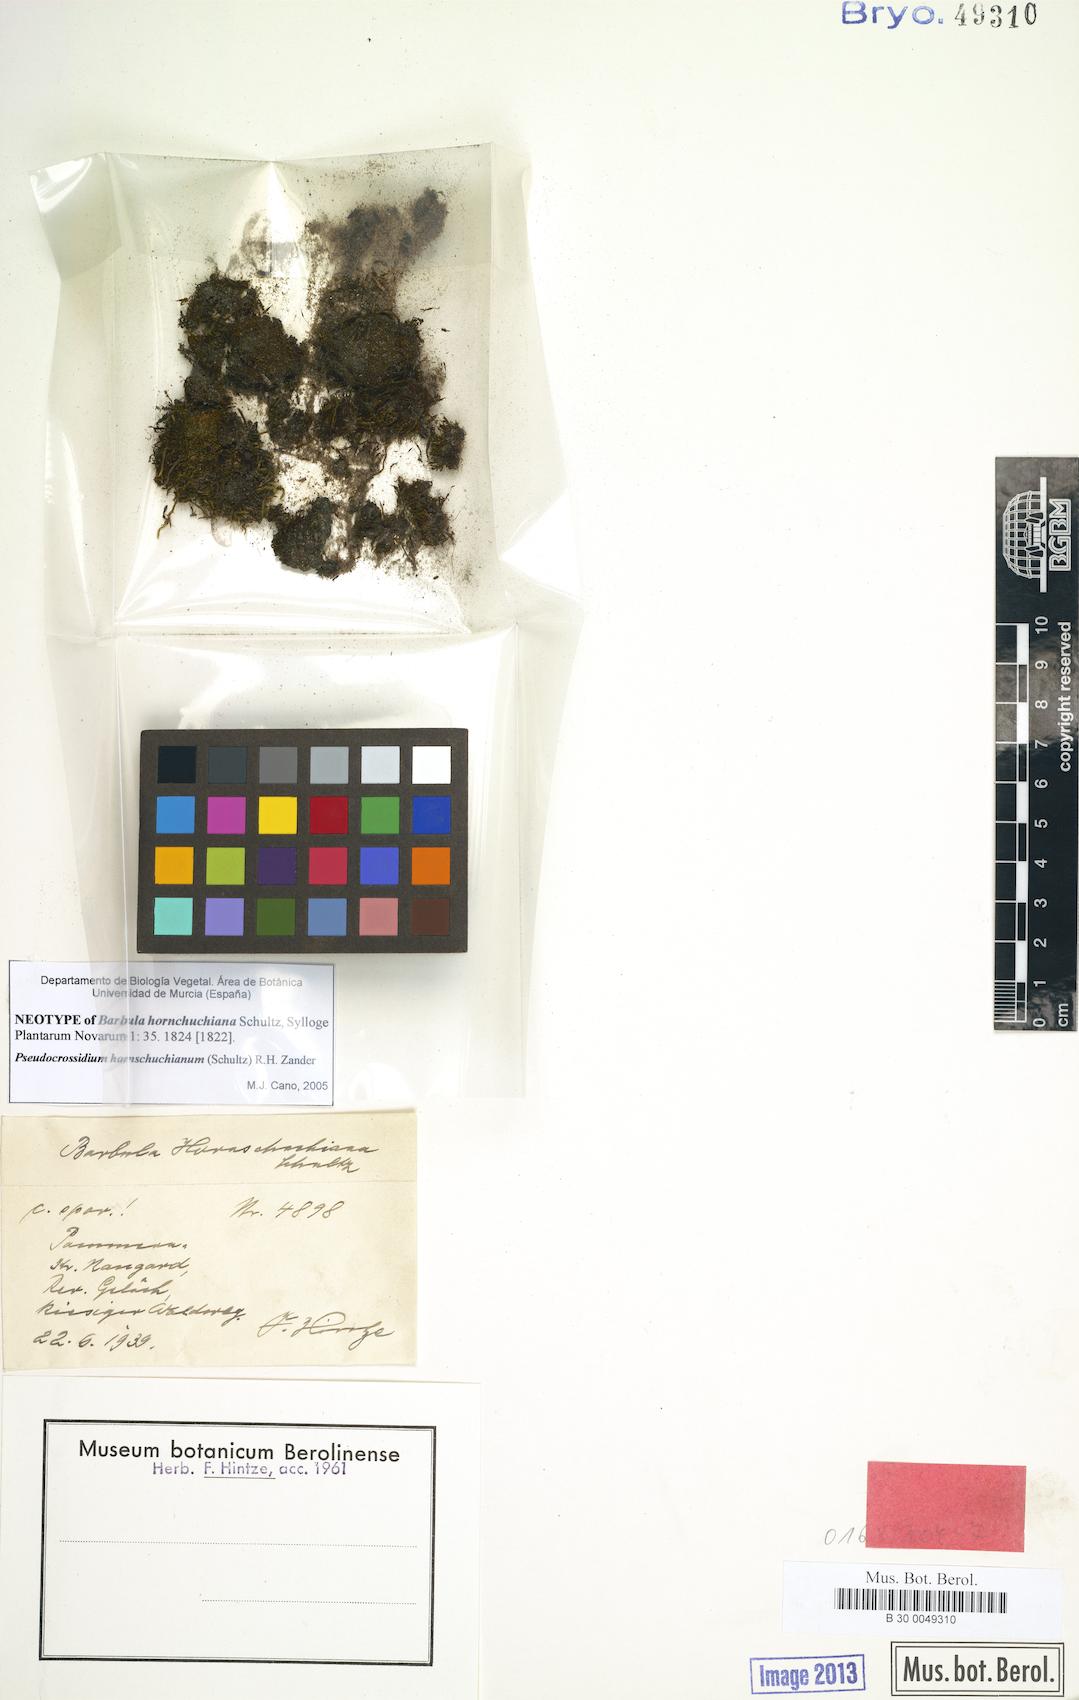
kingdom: Plantae
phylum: Bryophyta
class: Bryopsida
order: Pottiales
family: Pottiaceae
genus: Pseudocrossidium
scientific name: Pseudocrossidium hornschuchianum
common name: Hornschuch's beard-moss
